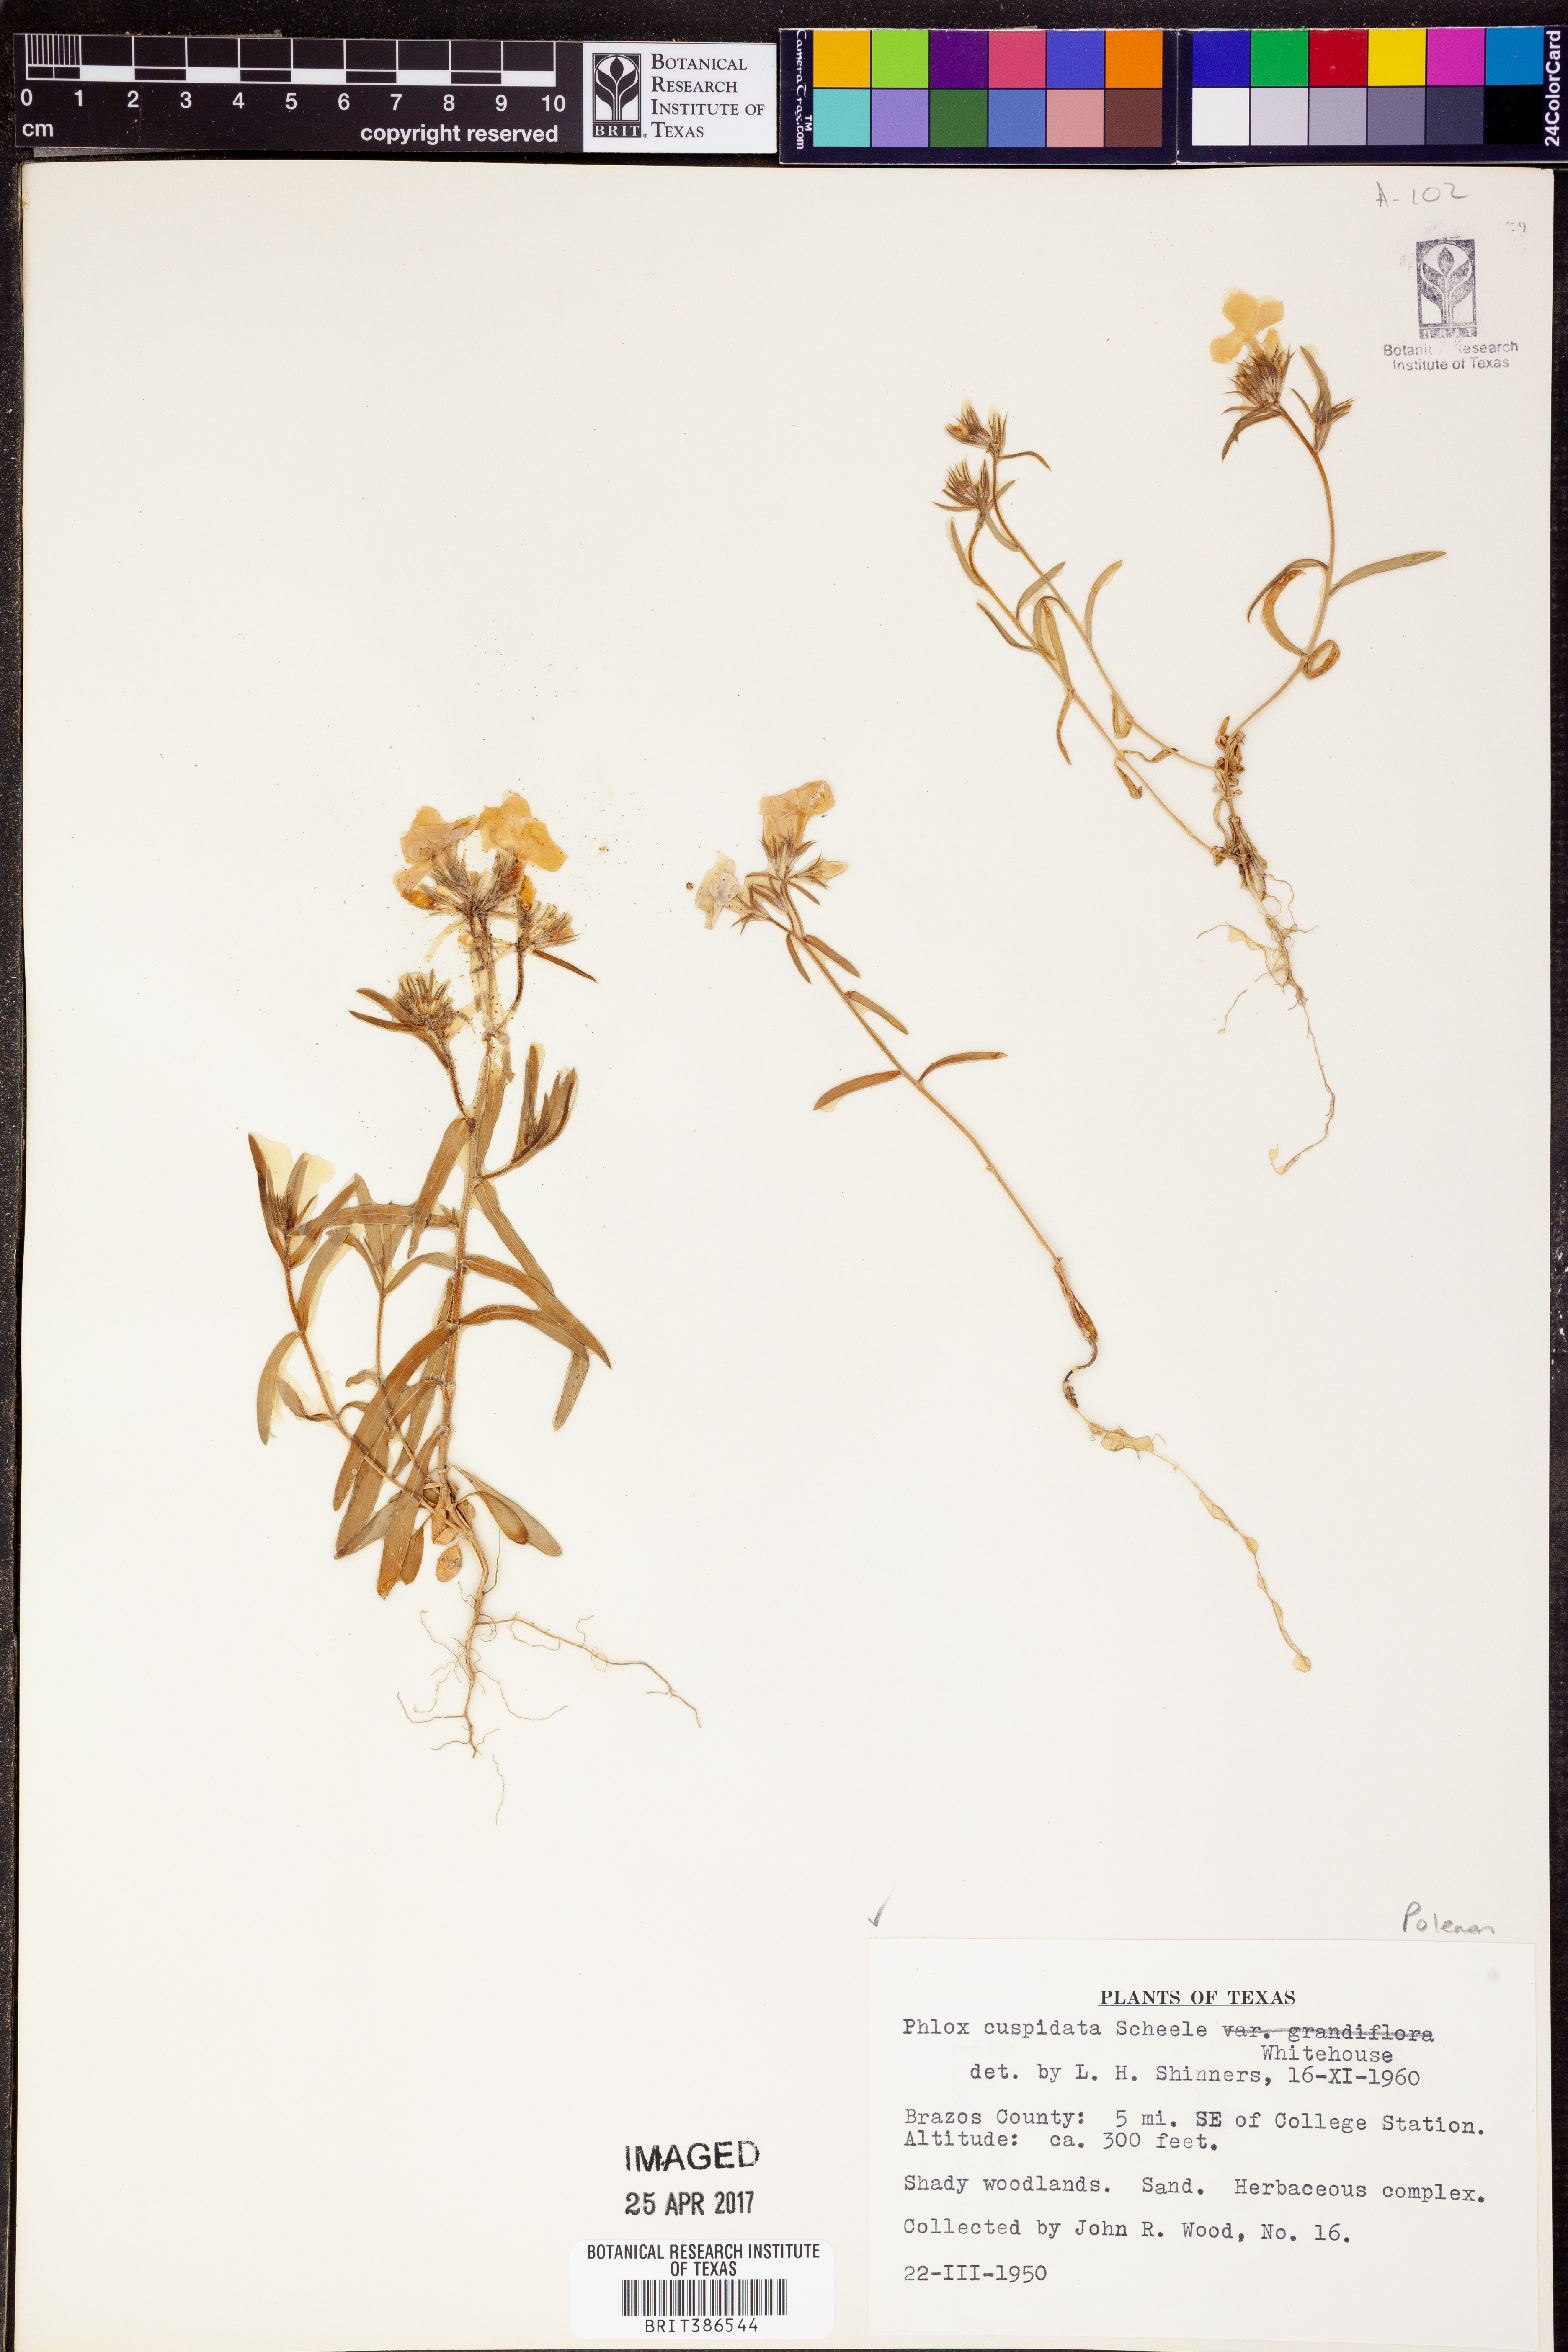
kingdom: Plantae
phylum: Tracheophyta
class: Magnoliopsida
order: Ericales
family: Polemoniaceae
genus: Phlox
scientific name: Phlox cuspidata
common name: Pointed phlox
